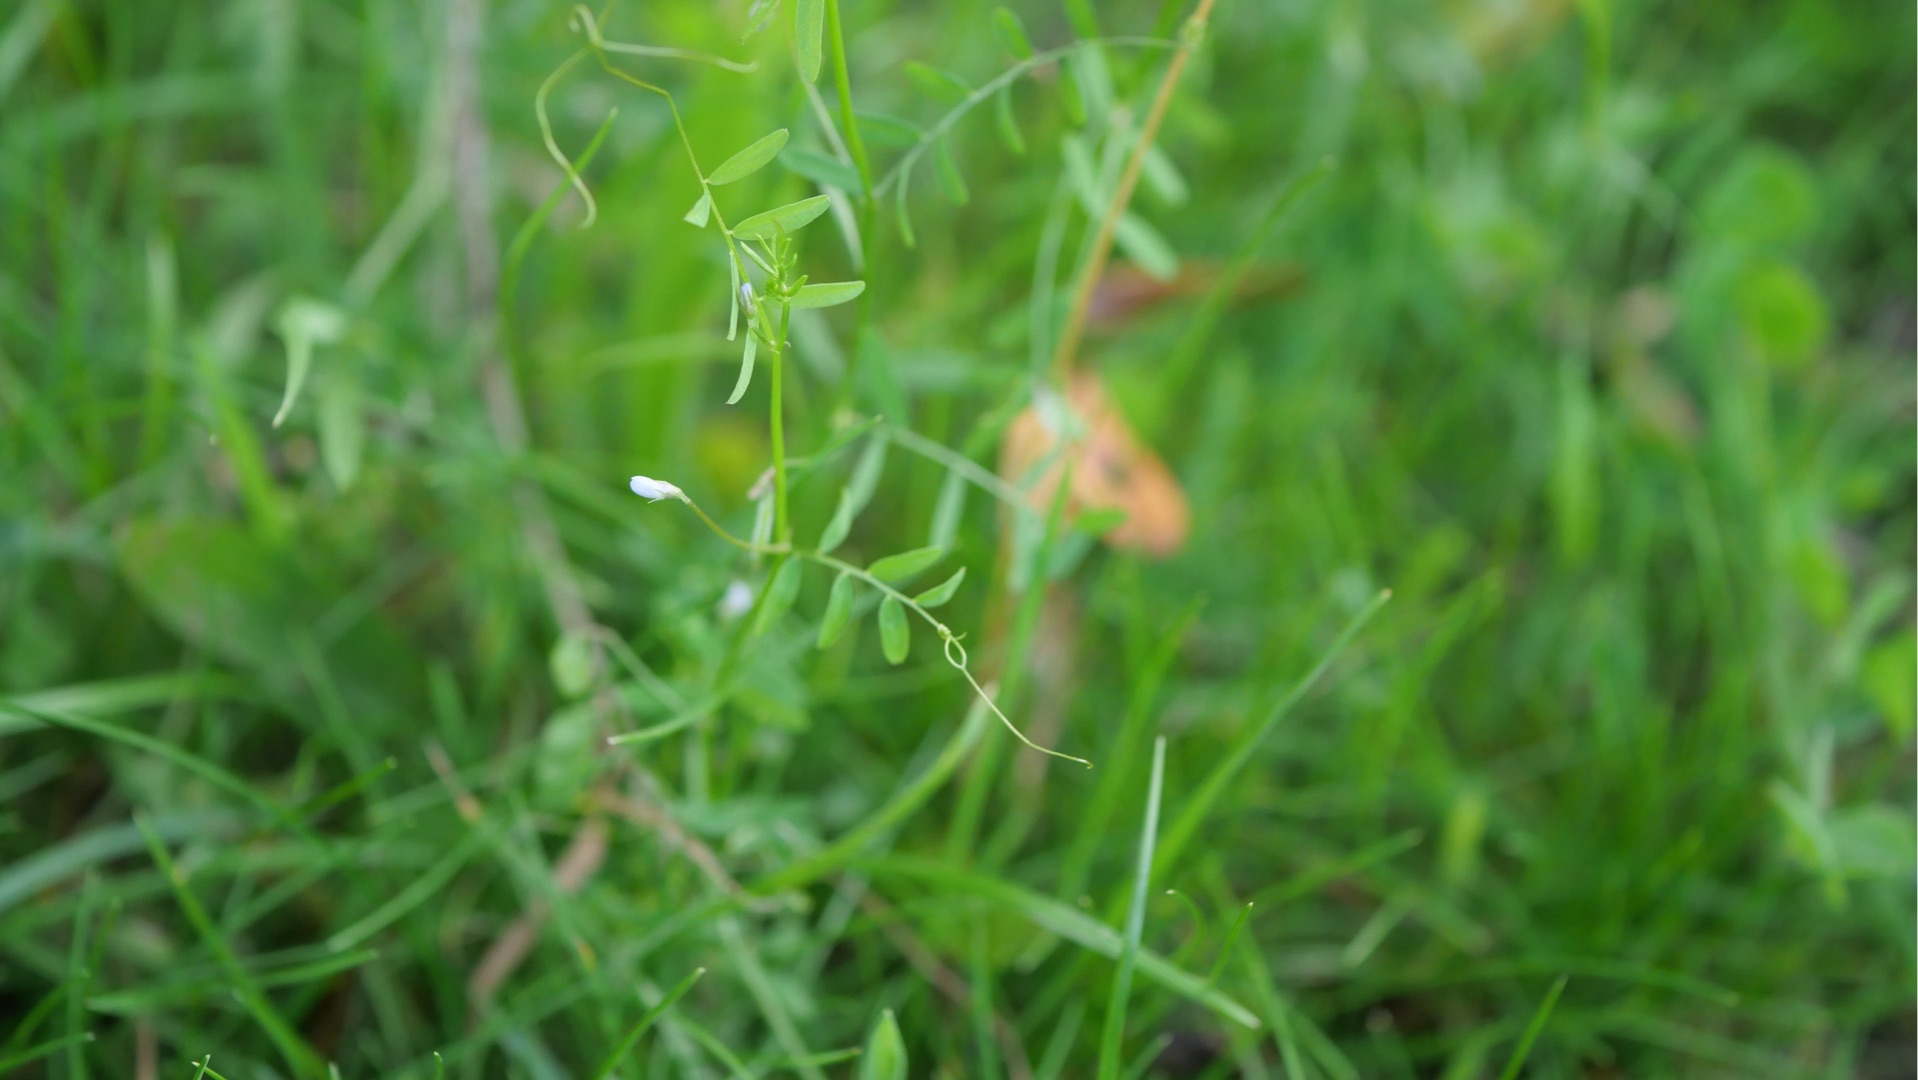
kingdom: Plantae
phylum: Tracheophyta
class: Magnoliopsida
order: Fabales
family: Fabaceae
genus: Vicia
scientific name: Vicia hirsuta
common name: Tofrøet vikke
